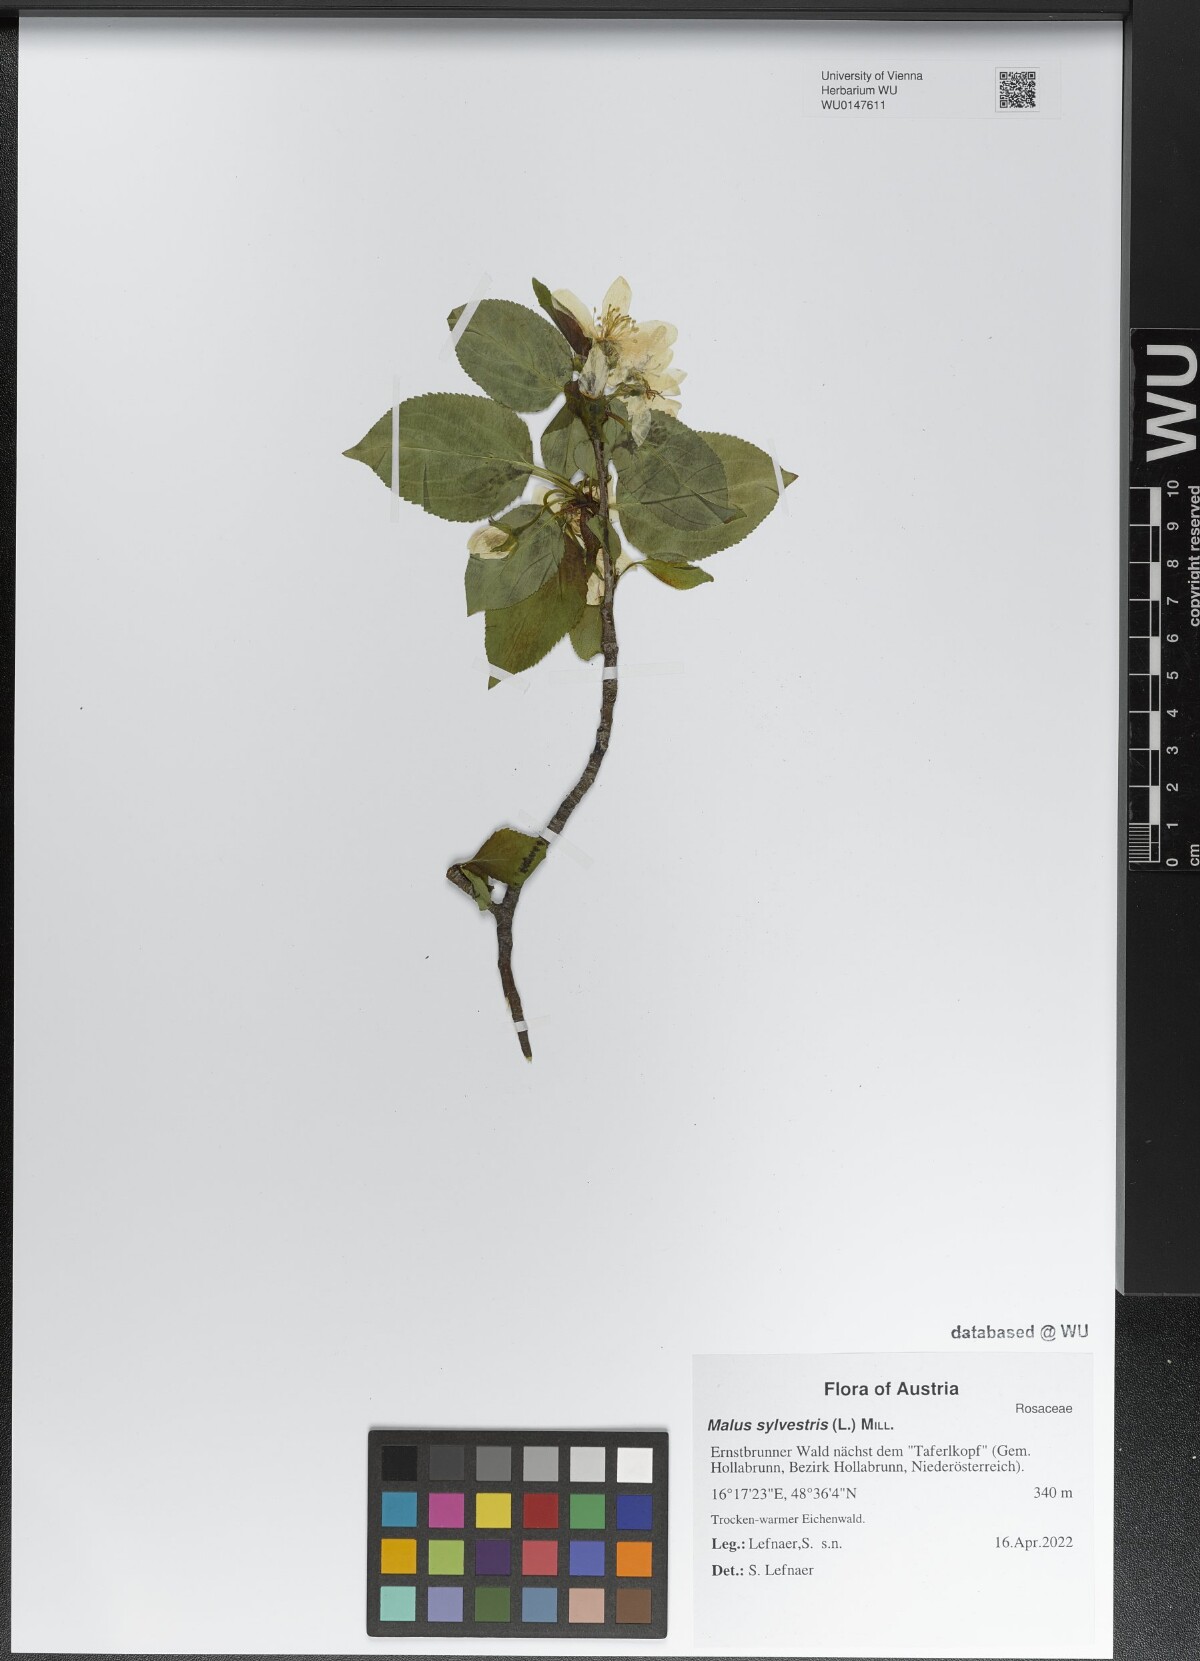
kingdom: Plantae
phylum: Tracheophyta
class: Magnoliopsida
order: Rosales
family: Rosaceae
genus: Malus
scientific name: Malus sylvestris
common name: Crab apple
